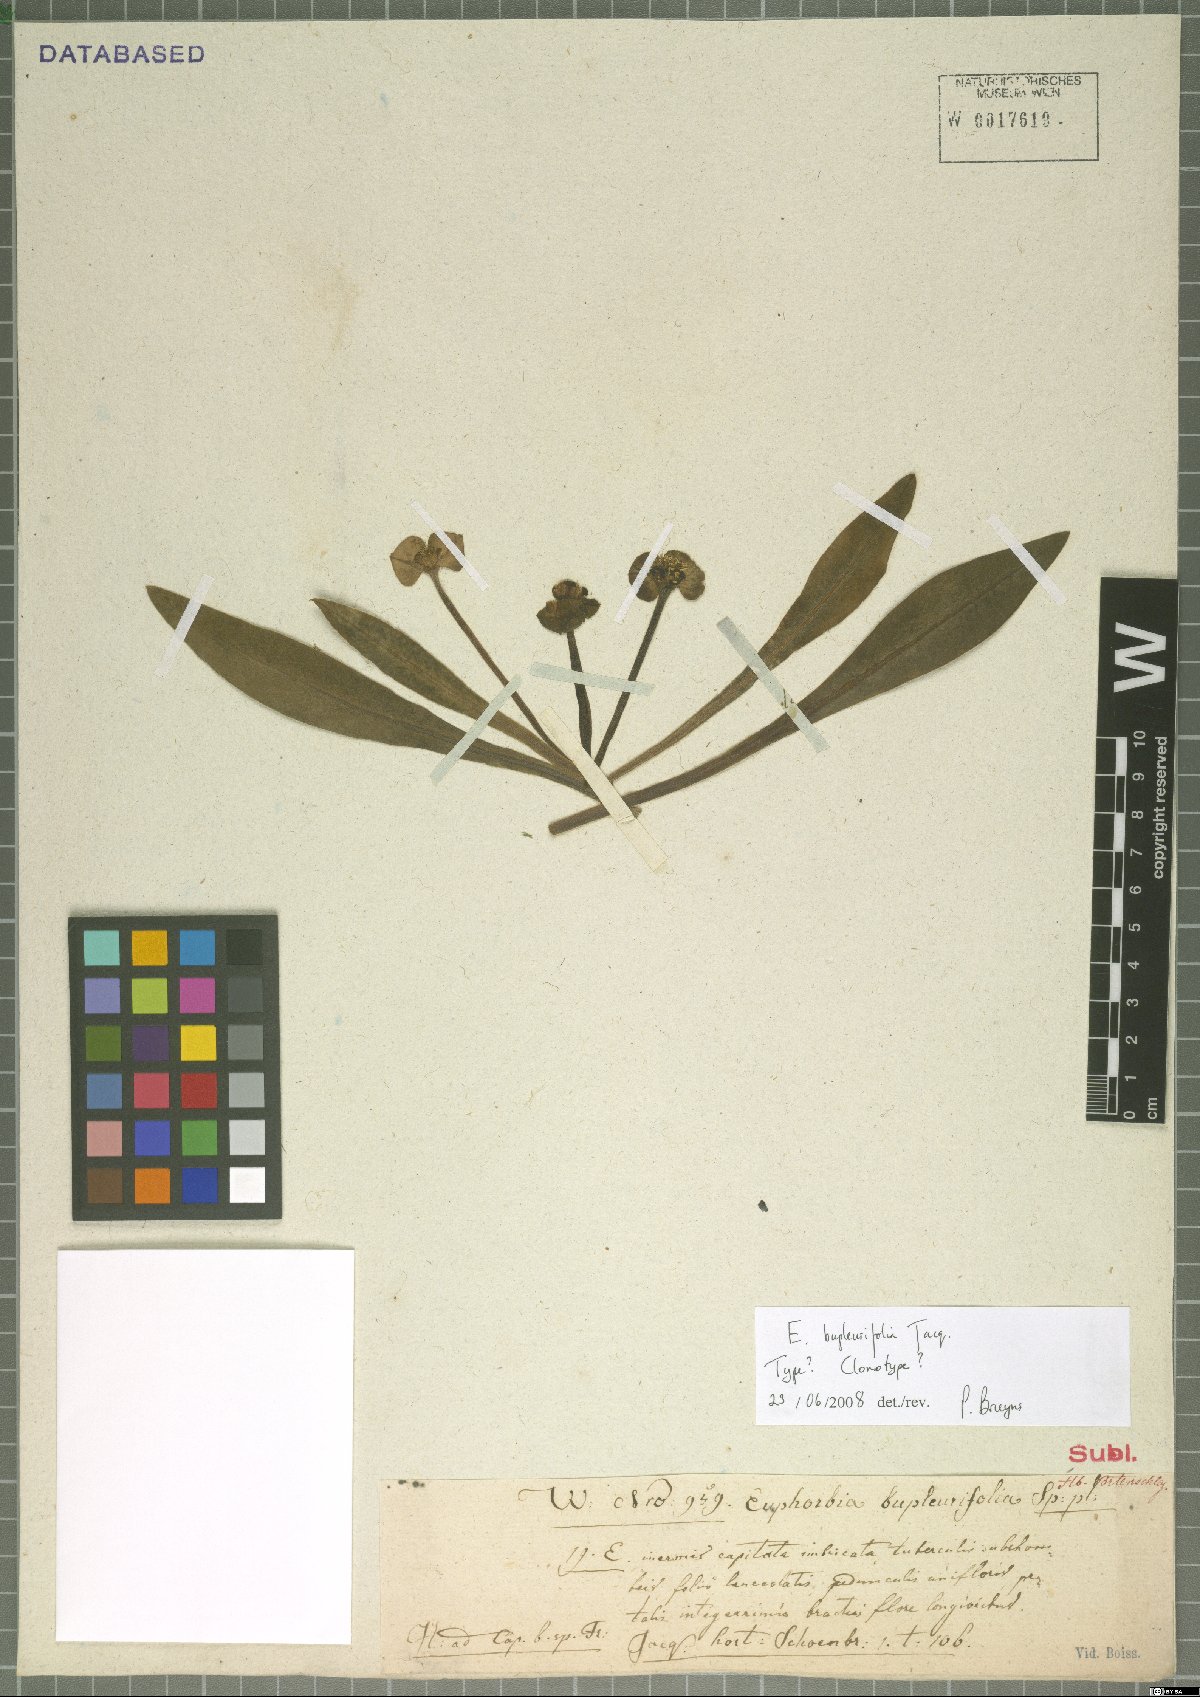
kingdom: Plantae
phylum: Tracheophyta
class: Magnoliopsida
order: Malpighiales
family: Euphorbiaceae
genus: Euphorbia
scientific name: Euphorbia bupleurifolia
